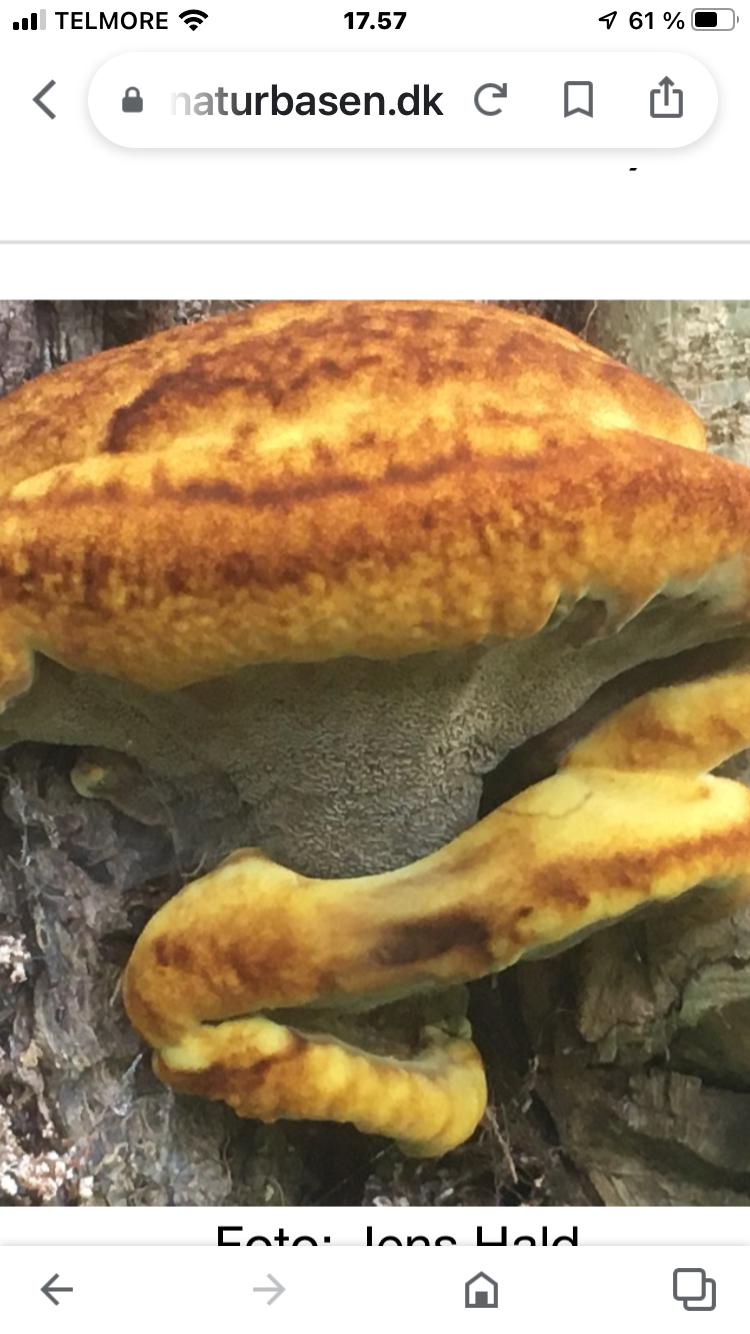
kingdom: Fungi
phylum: Basidiomycota
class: Agaricomycetes
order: Polyporales
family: Laetiporaceae
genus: Phaeolus
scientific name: Phaeolus schweinitzii
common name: brunporesvamp
